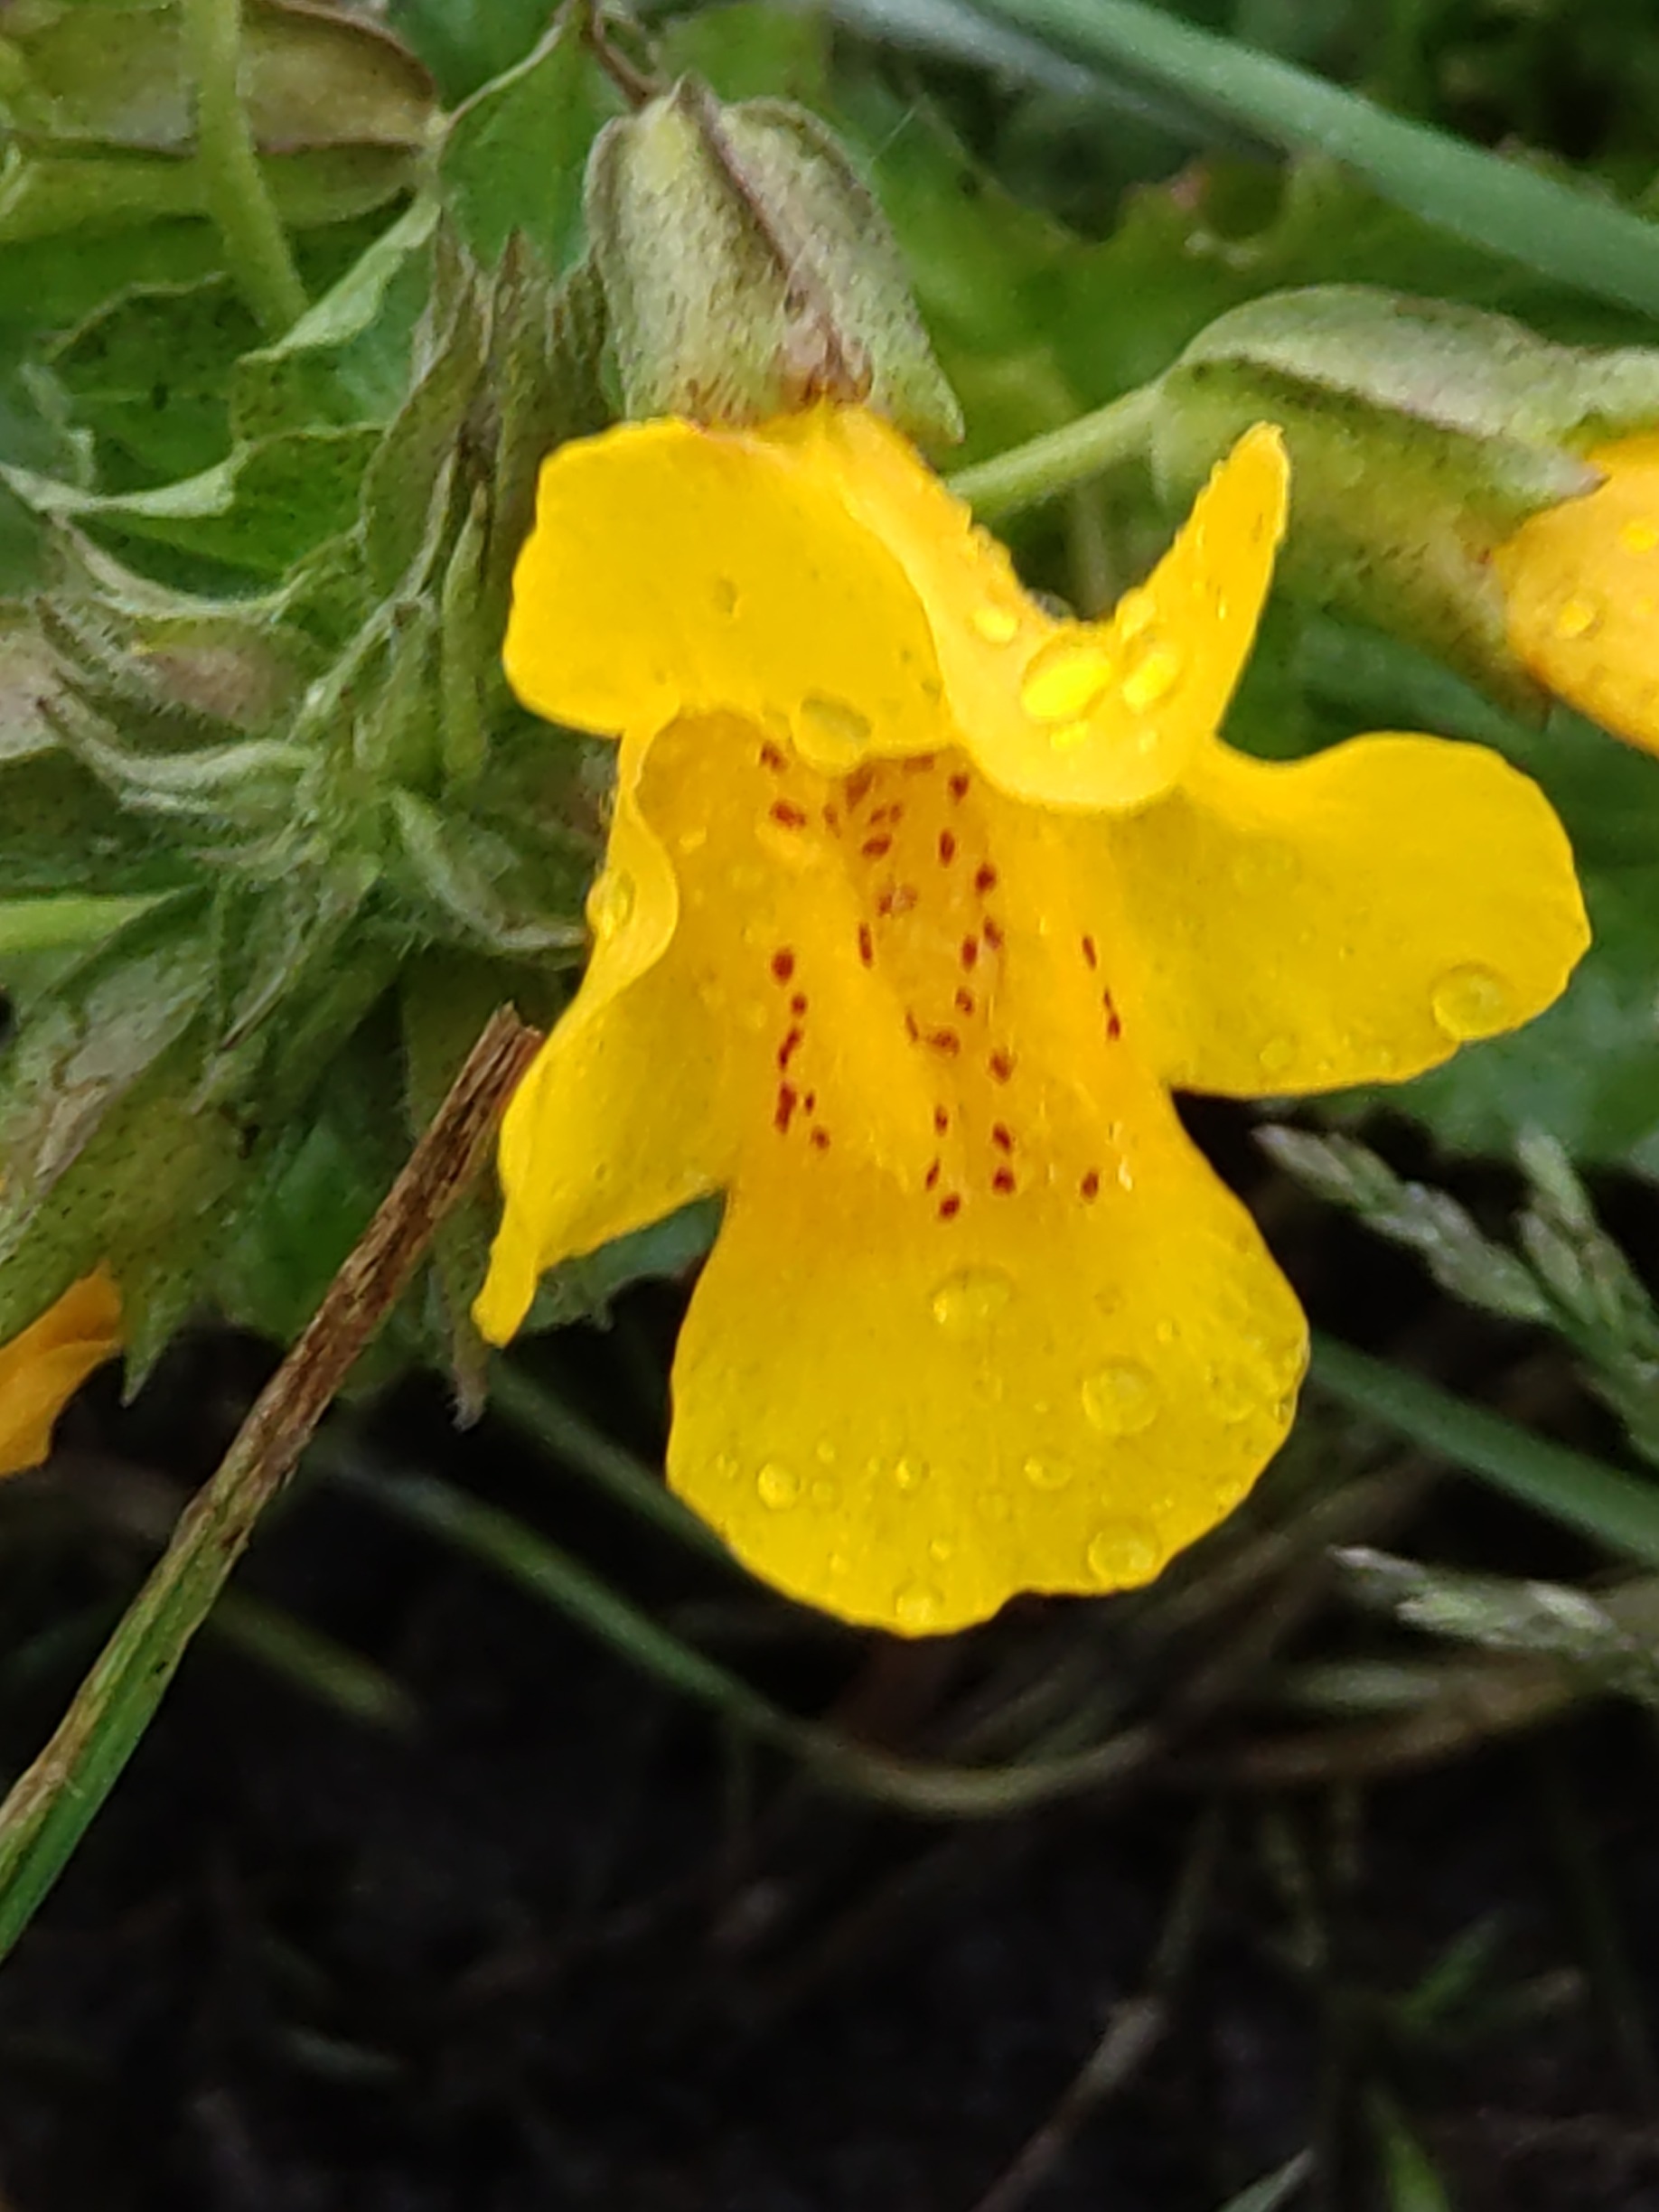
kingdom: Plantae
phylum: Tracheophyta
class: Magnoliopsida
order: Lamiales
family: Phrymaceae
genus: Erythranthe
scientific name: Erythranthe guttata
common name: Abeblomst
